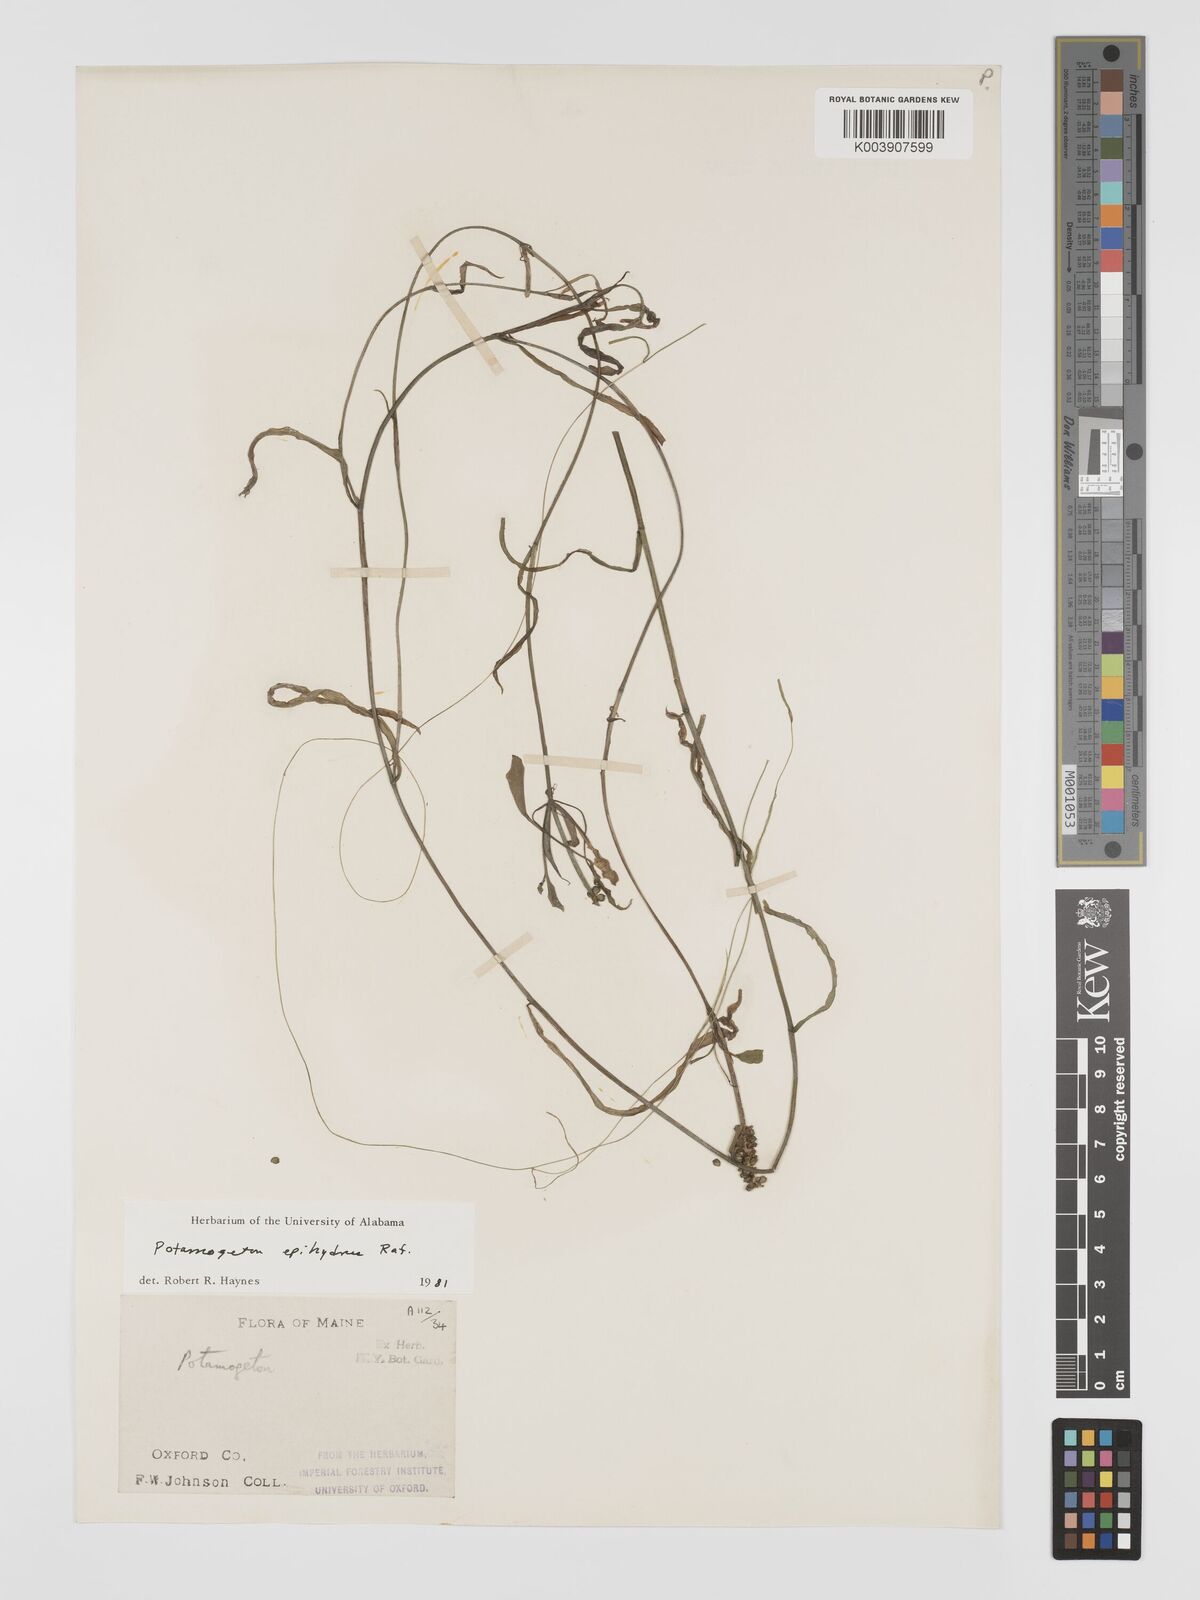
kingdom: Plantae
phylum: Tracheophyta
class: Liliopsida
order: Alismatales
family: Potamogetonaceae
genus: Potamogeton
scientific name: Potamogeton nodosus
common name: Loddon pondweed
